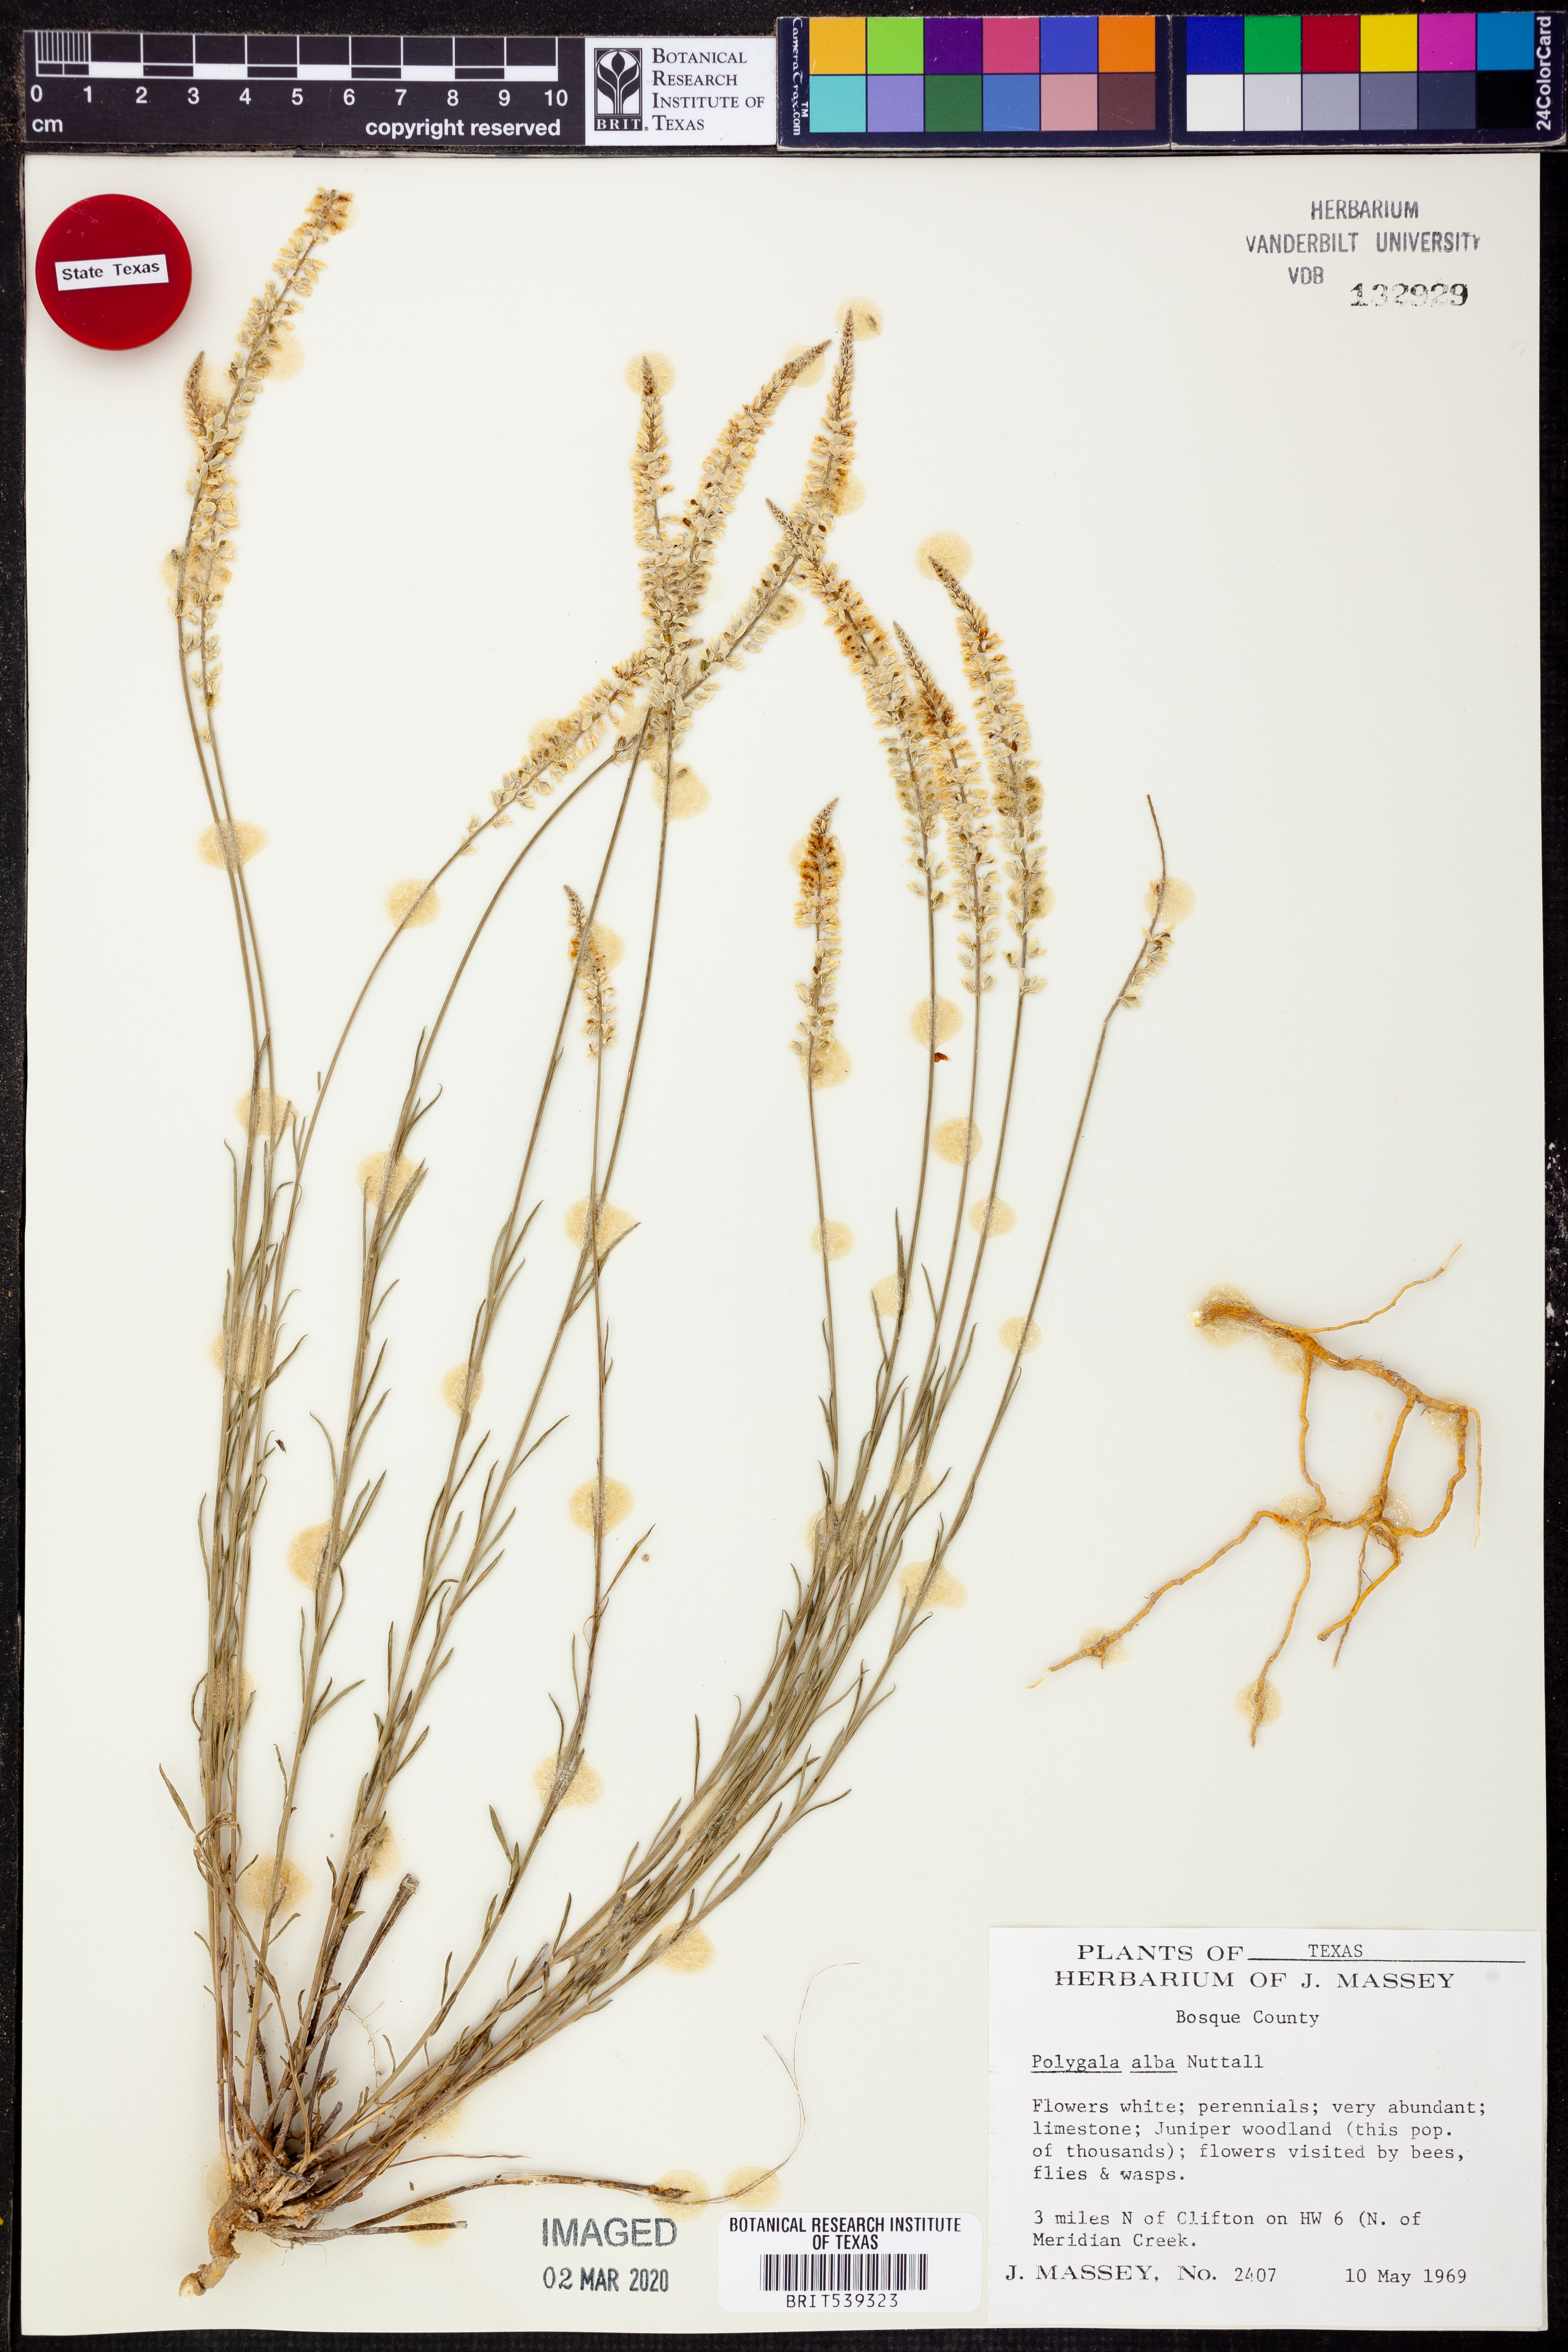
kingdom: Plantae
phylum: Tracheophyta
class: Magnoliopsida
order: Fabales
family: Polygalaceae
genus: Polygala
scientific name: Polygala alba
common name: White milkwort
